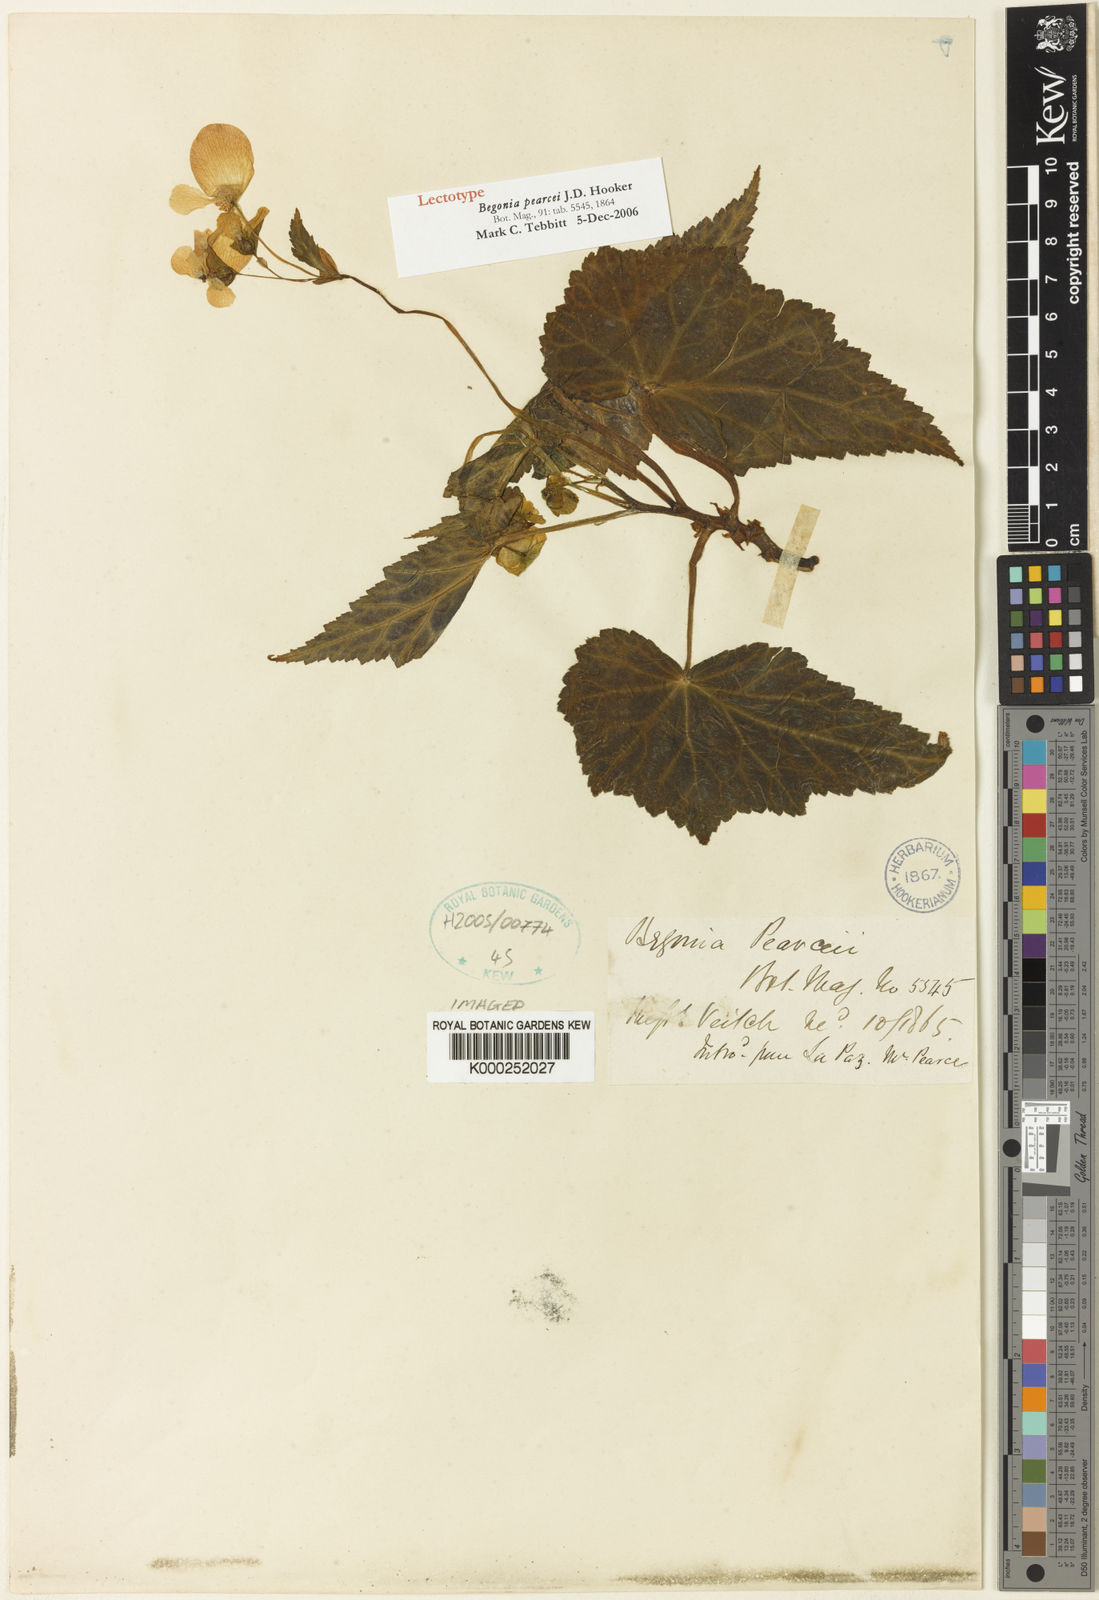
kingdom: Plantae
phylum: Tracheophyta
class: Magnoliopsida
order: Cucurbitales
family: Begoniaceae
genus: Begonia
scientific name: Begonia pearcei
